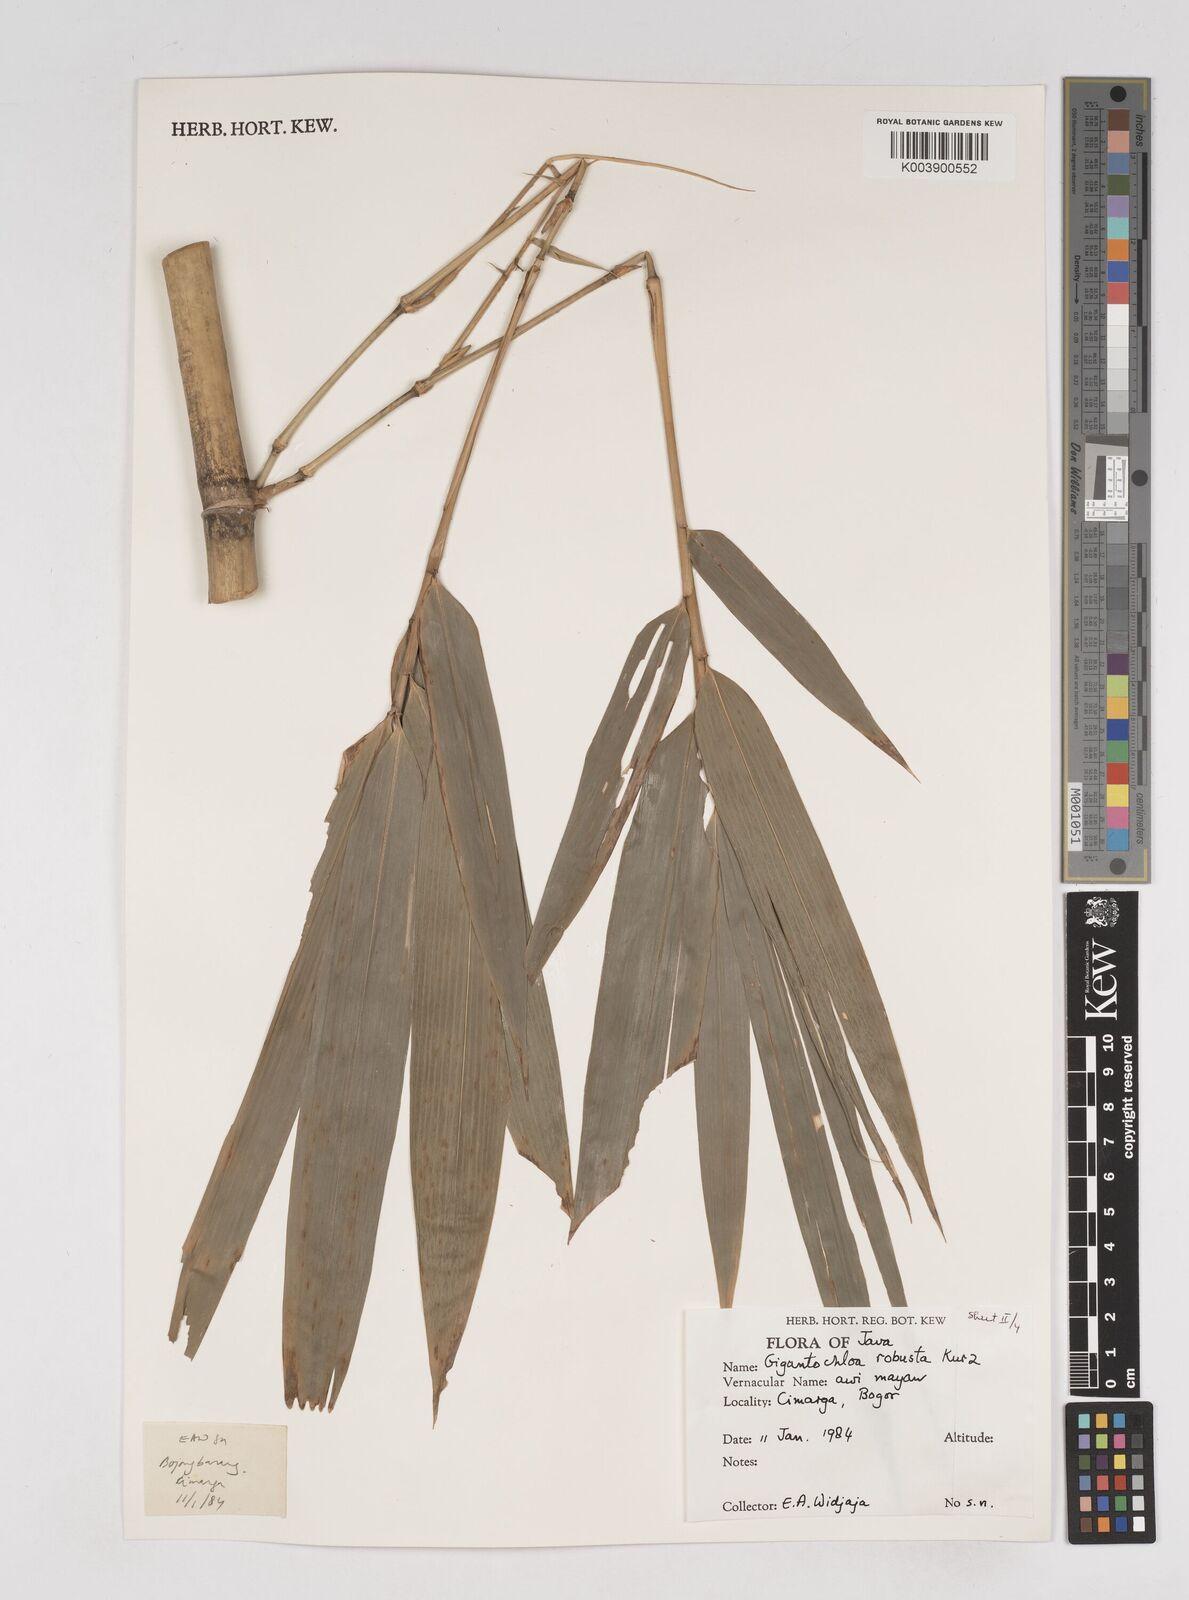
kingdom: Plantae
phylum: Tracheophyta
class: Liliopsida
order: Poales
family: Poaceae
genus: Gigantochloa
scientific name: Gigantochloa robusta
